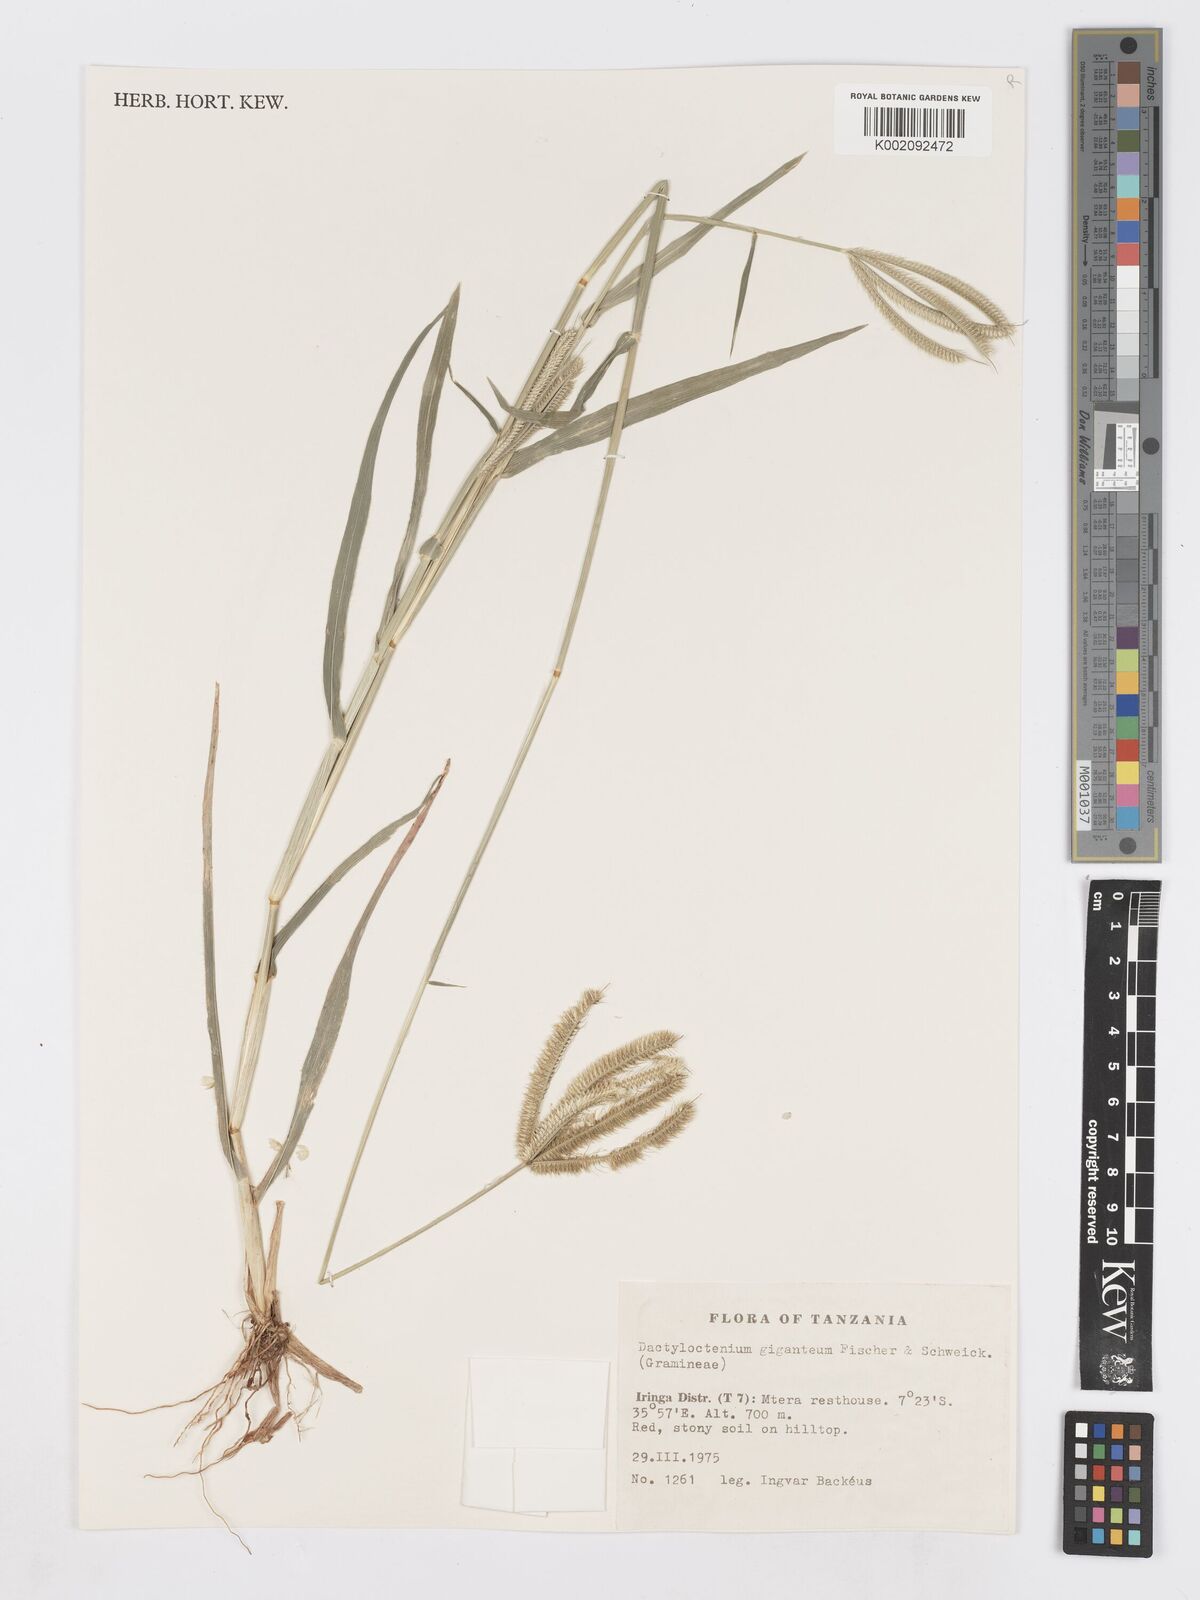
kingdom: Plantae
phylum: Tracheophyta
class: Liliopsida
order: Poales
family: Poaceae
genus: Dactyloctenium
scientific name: Dactyloctenium giganteum
